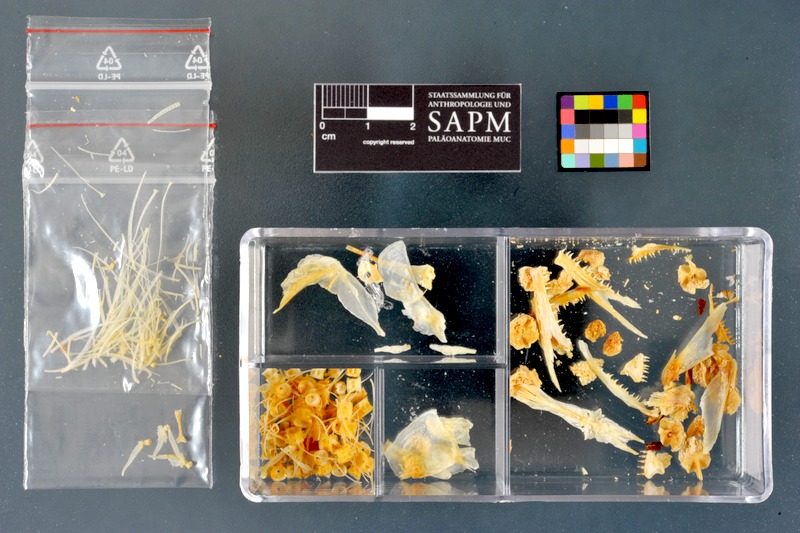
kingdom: Animalia
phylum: Chordata
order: Salmoniformes
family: Salmonidae
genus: Salvelinus
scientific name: Salvelinus alpinus
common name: Charr
